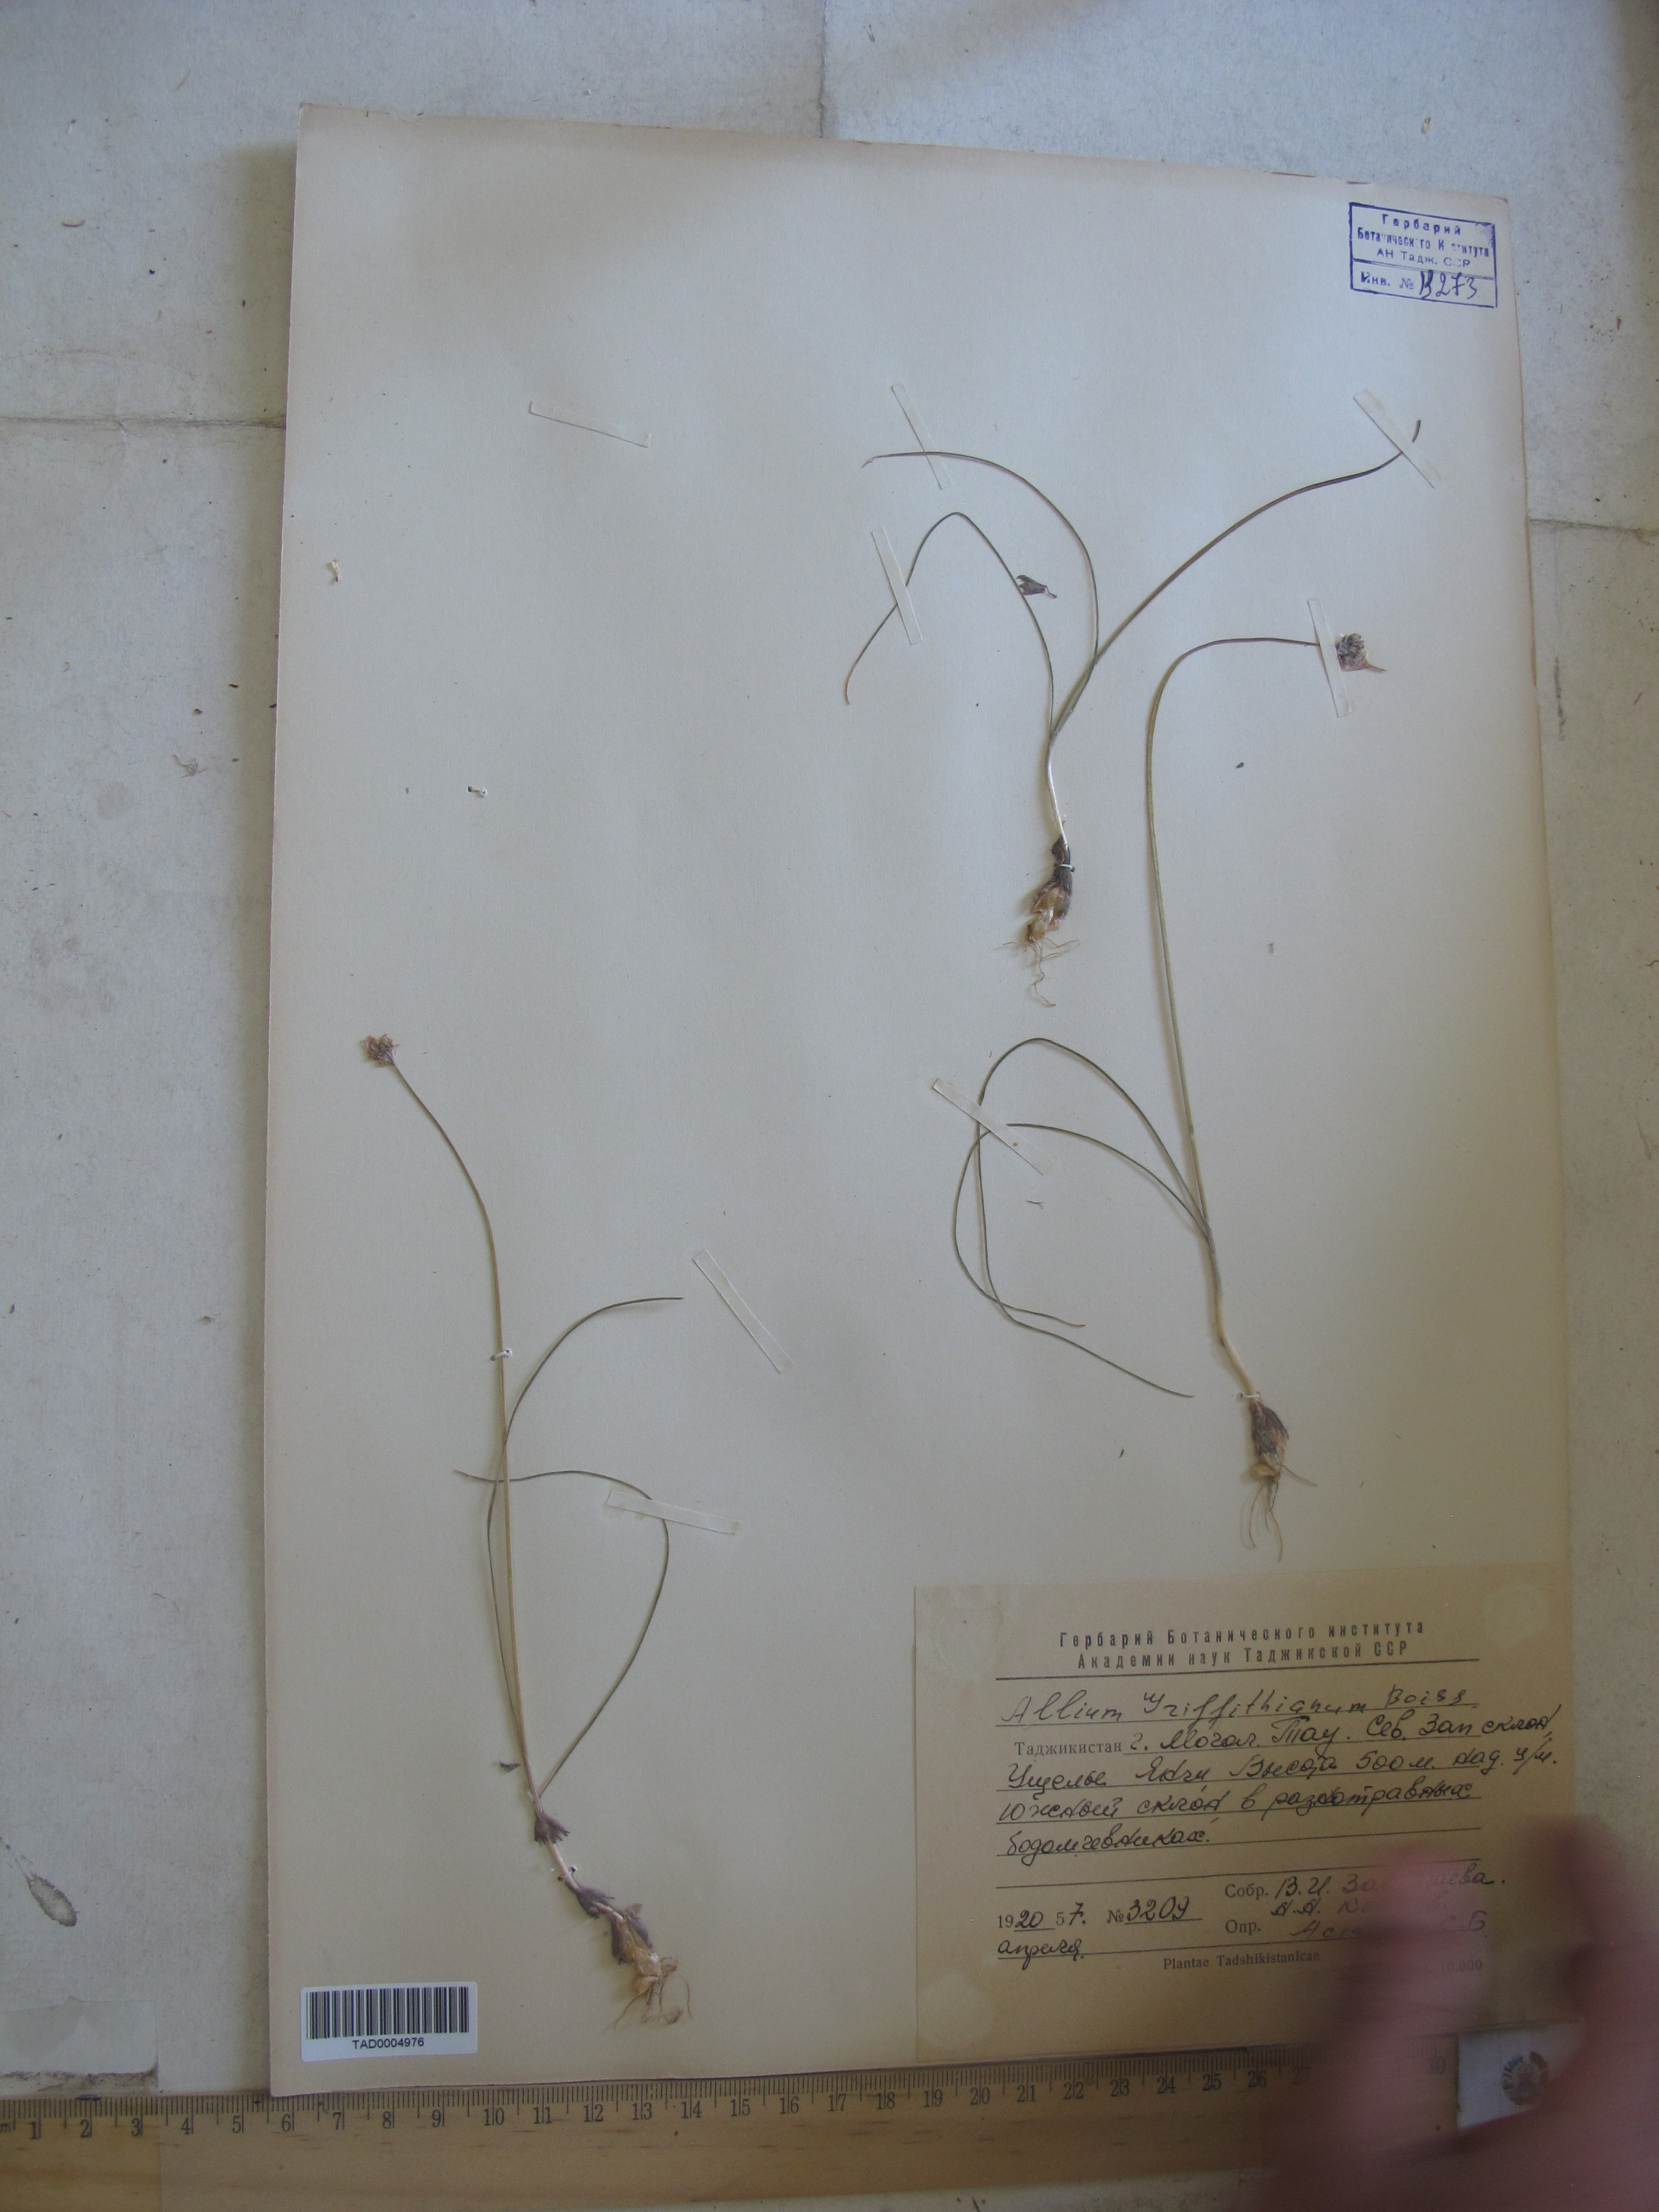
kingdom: Plantae
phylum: Tracheophyta
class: Liliopsida
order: Asparagales
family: Amaryllidaceae
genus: Allium
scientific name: Allium griffithianum
